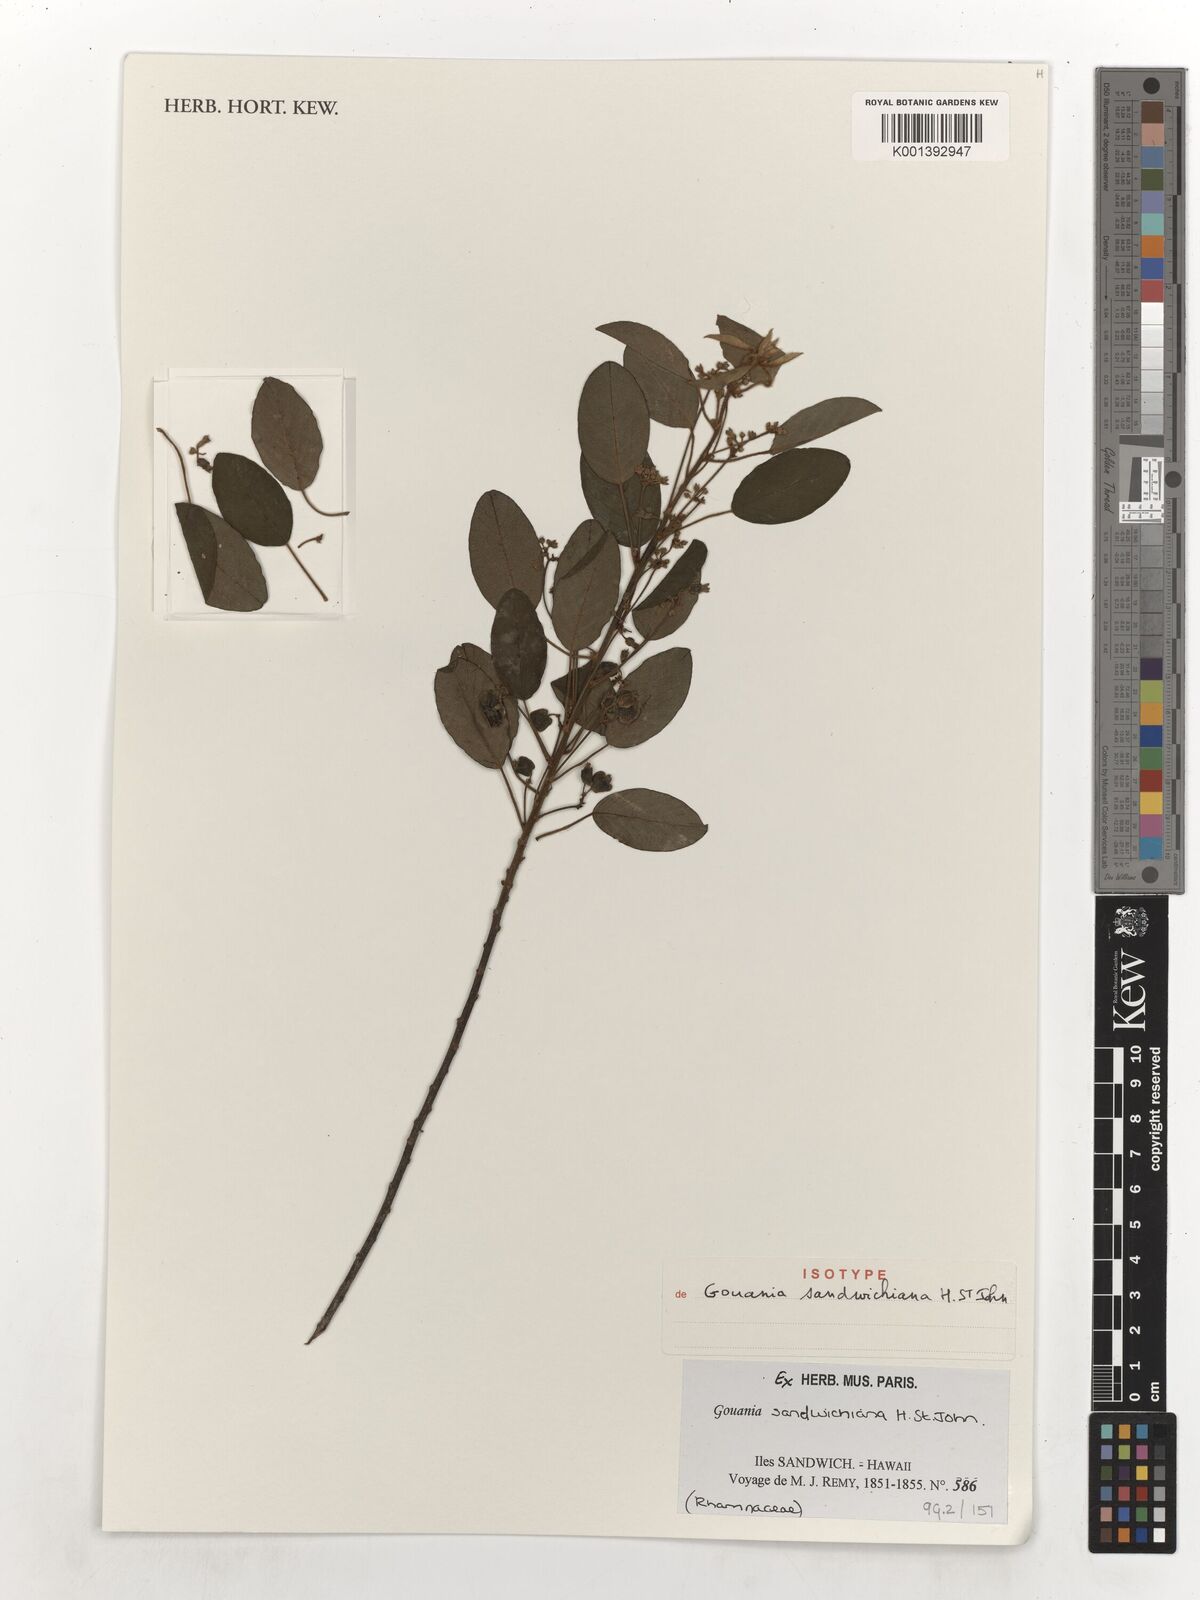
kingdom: Plantae
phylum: Tracheophyta
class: Magnoliopsida
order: Rosales
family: Rhamnaceae
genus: Gouania
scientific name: Gouania hillebrandii
